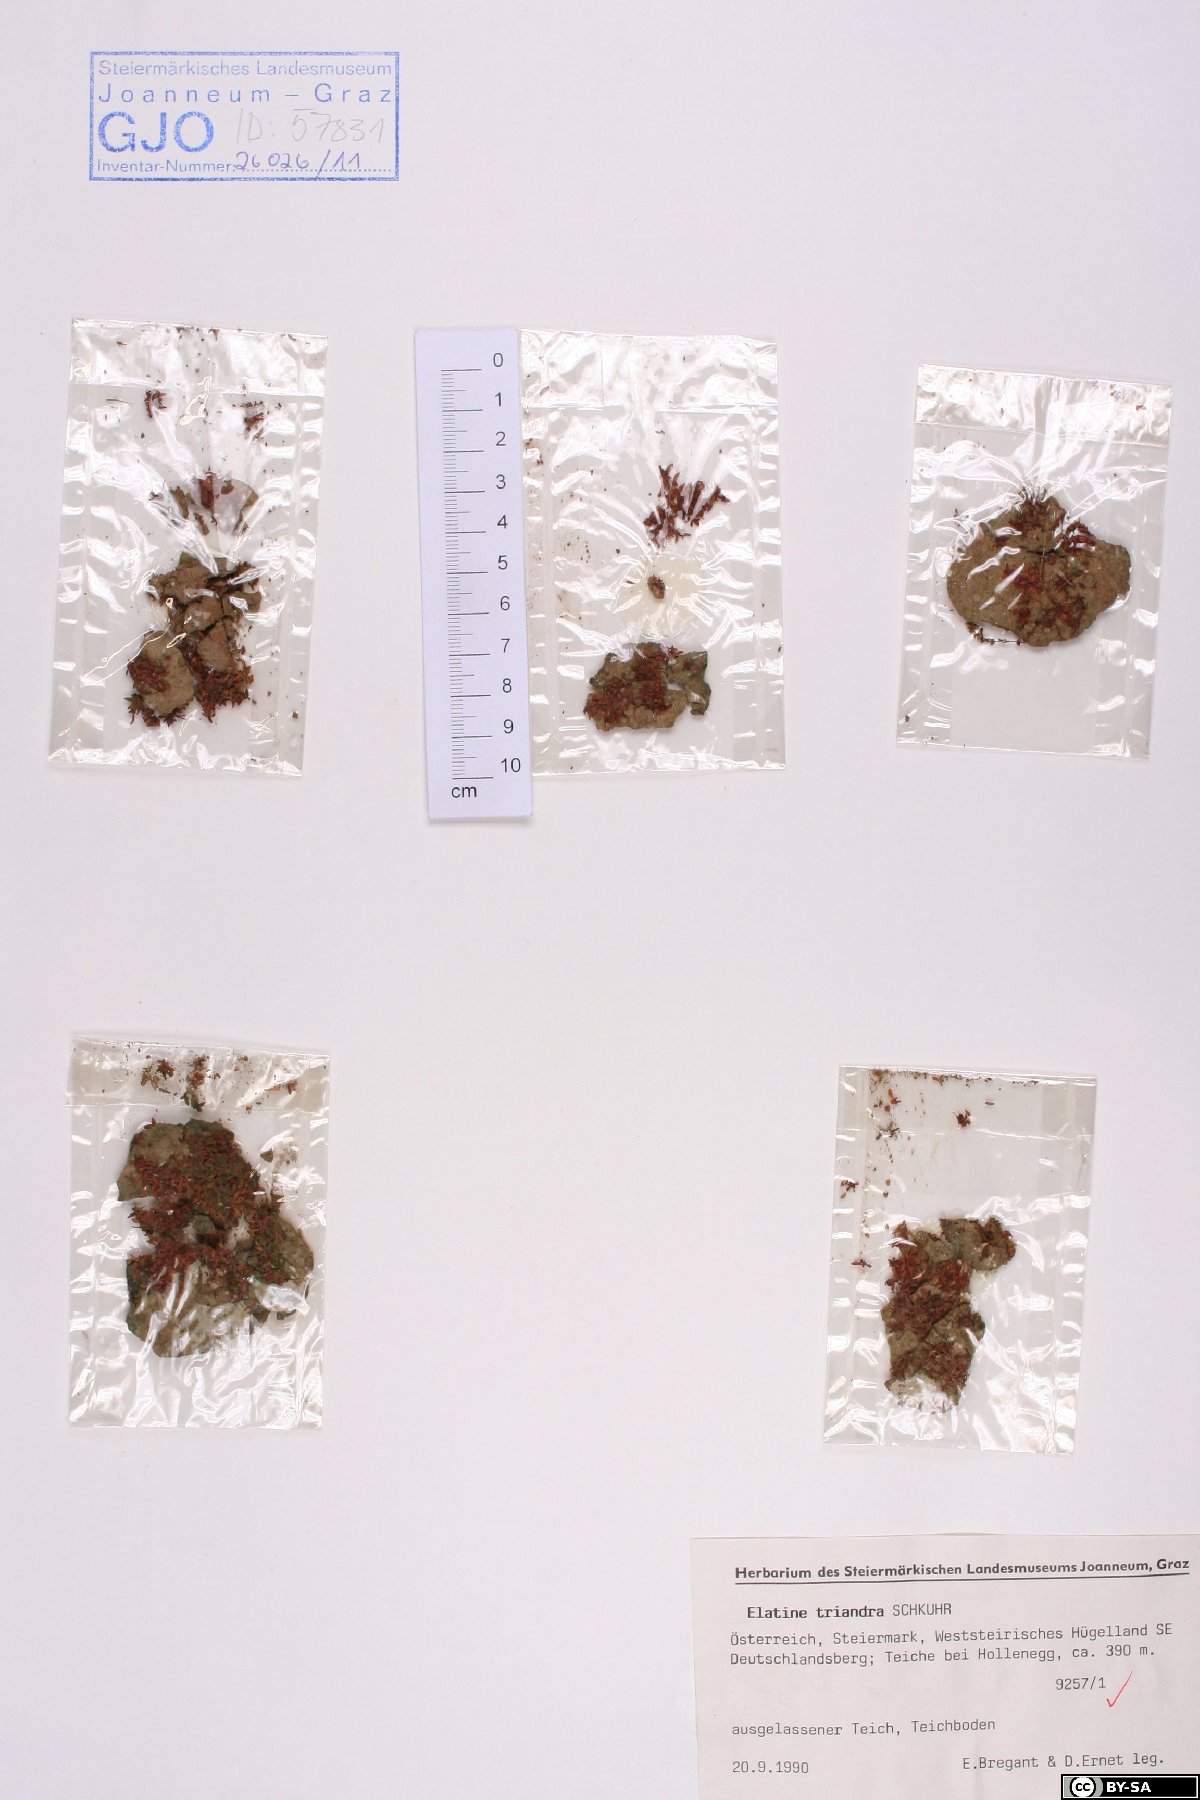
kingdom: Plantae
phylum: Tracheophyta
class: Magnoliopsida
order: Malpighiales
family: Elatinaceae
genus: Elatine
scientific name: Elatine triandra
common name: Three-stamened waterwort
